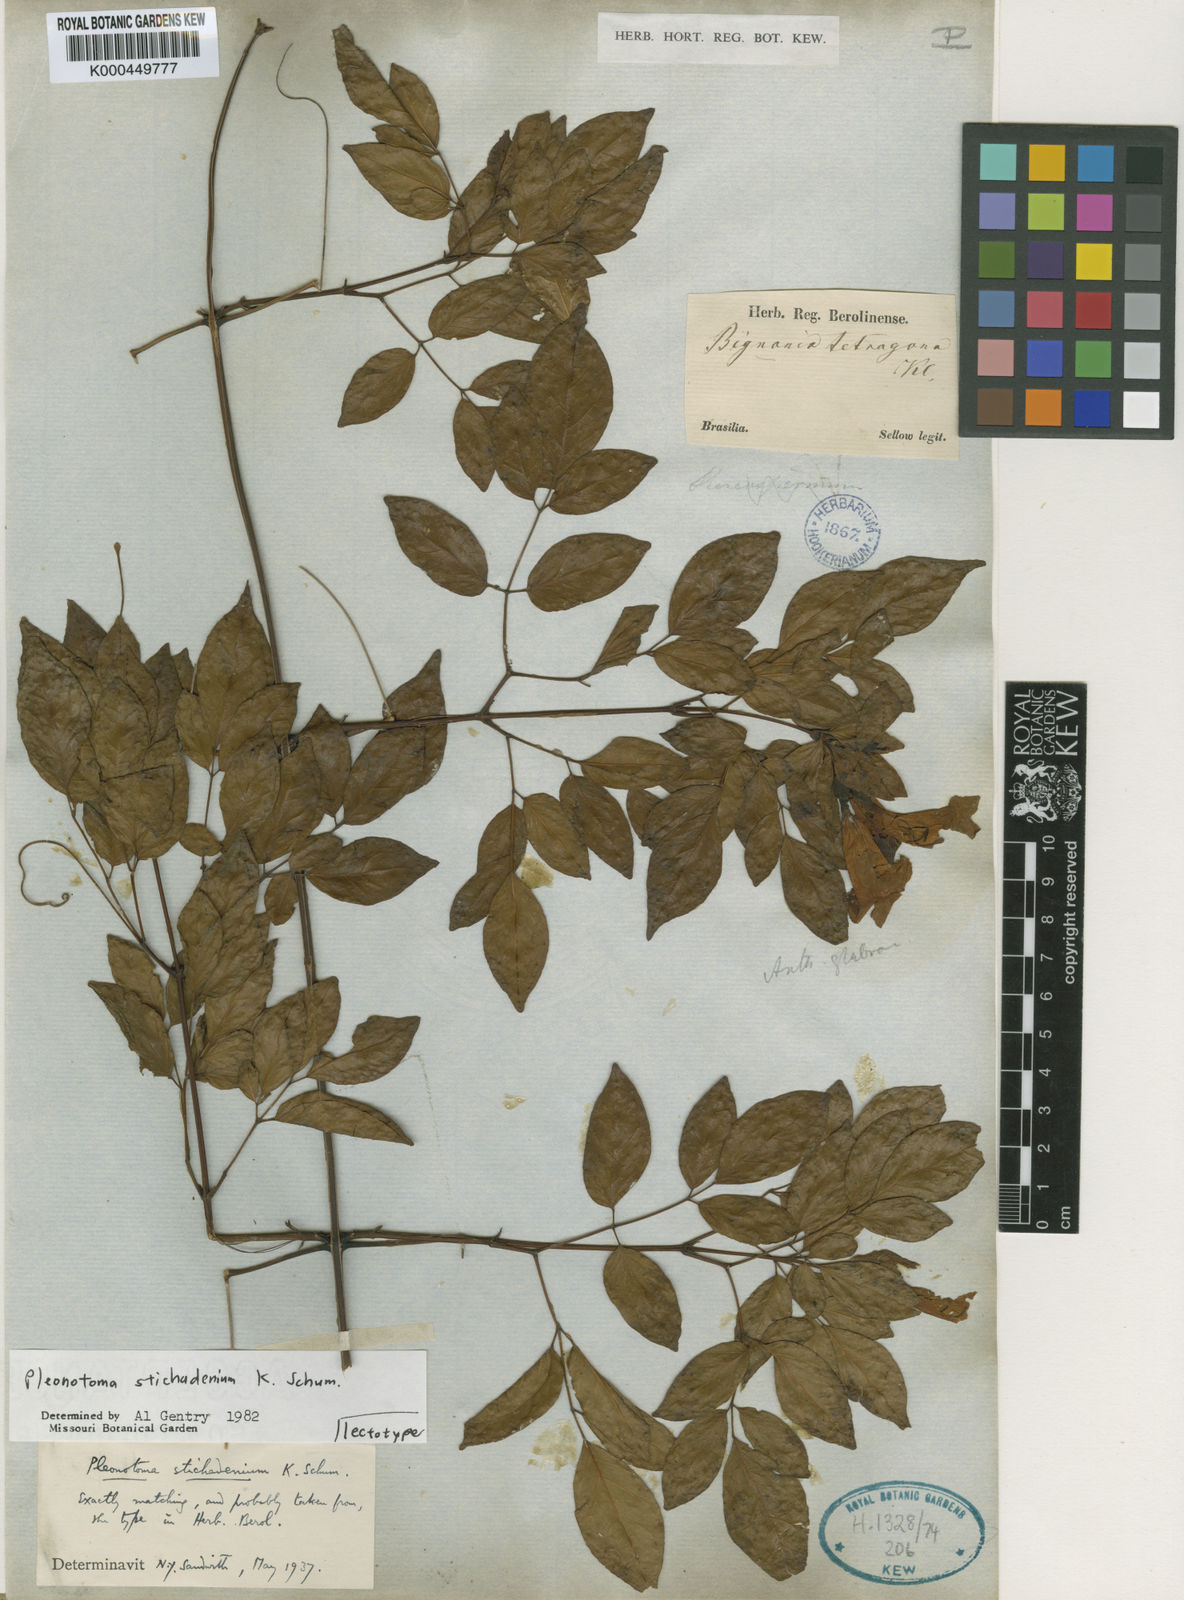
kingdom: Plantae
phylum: Tracheophyta
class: Magnoliopsida
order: Lamiales
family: Bignoniaceae
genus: Pleonotoma
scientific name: Pleonotoma stichadenia
